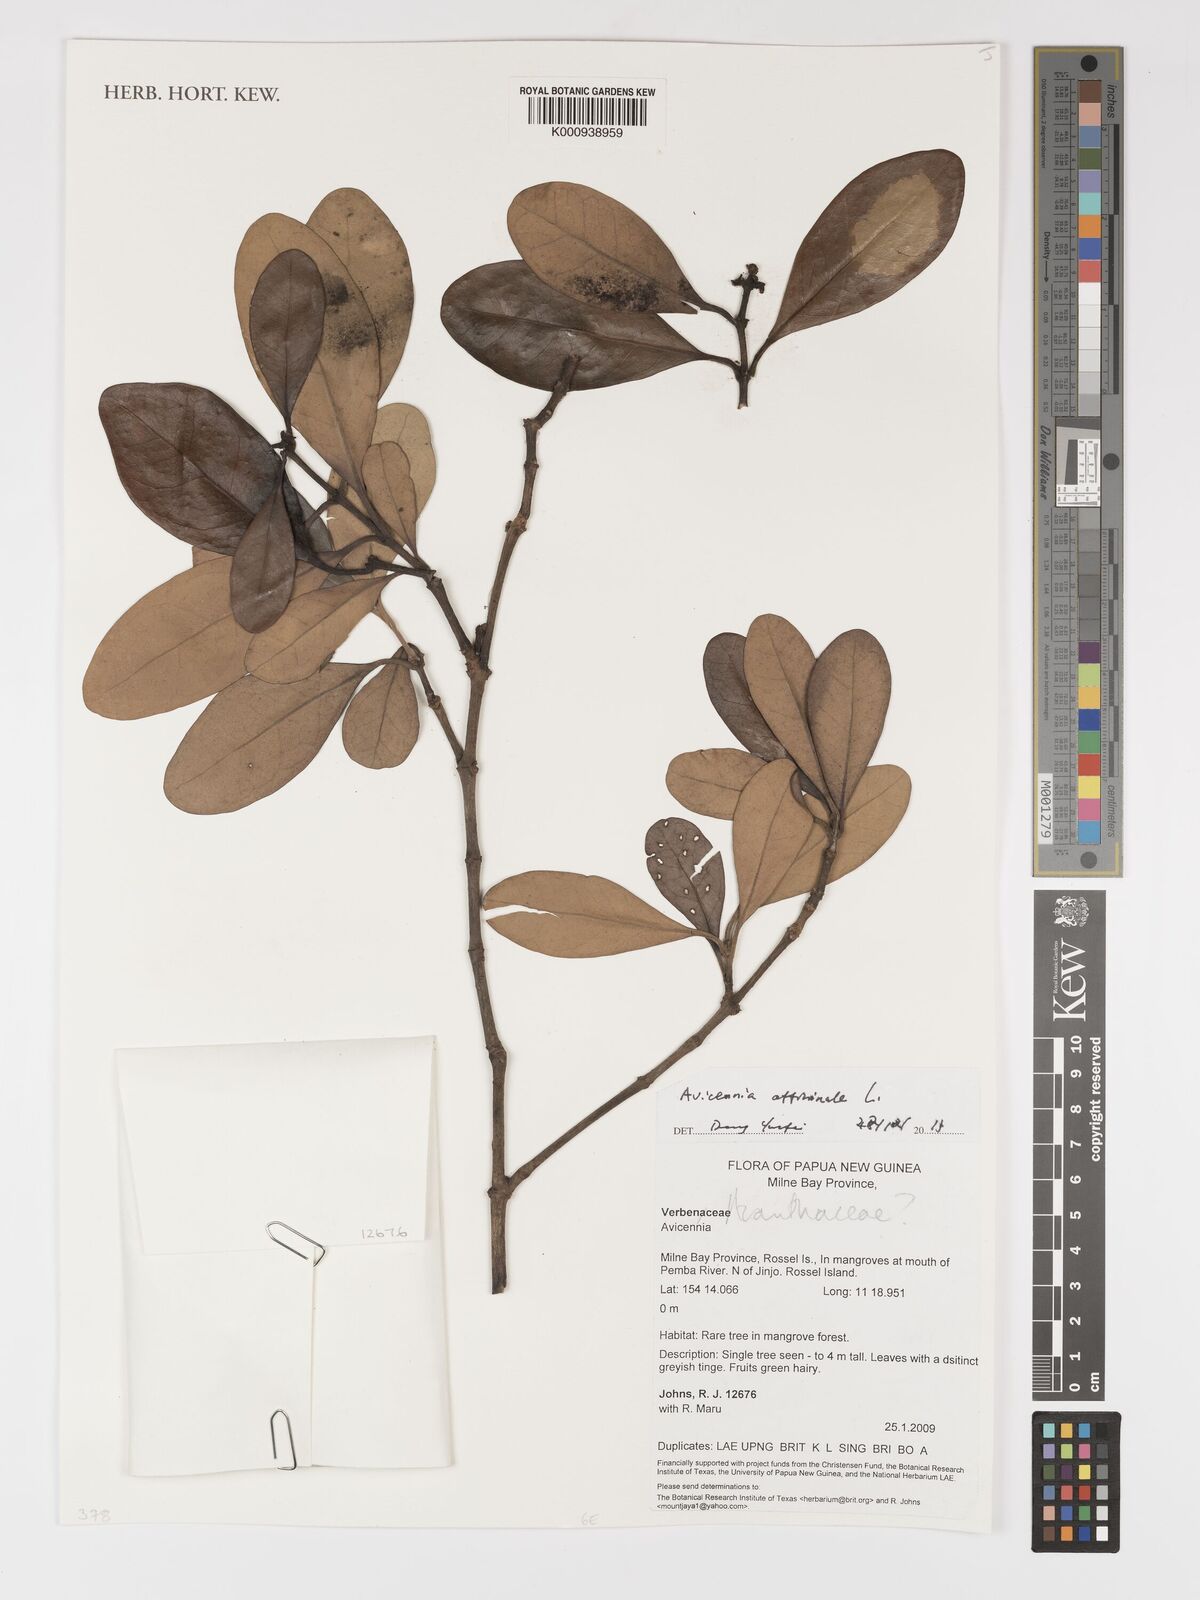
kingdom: Plantae
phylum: Tracheophyta
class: Magnoliopsida
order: Lamiales
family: Acanthaceae
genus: Acanthus
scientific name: Acanthus
